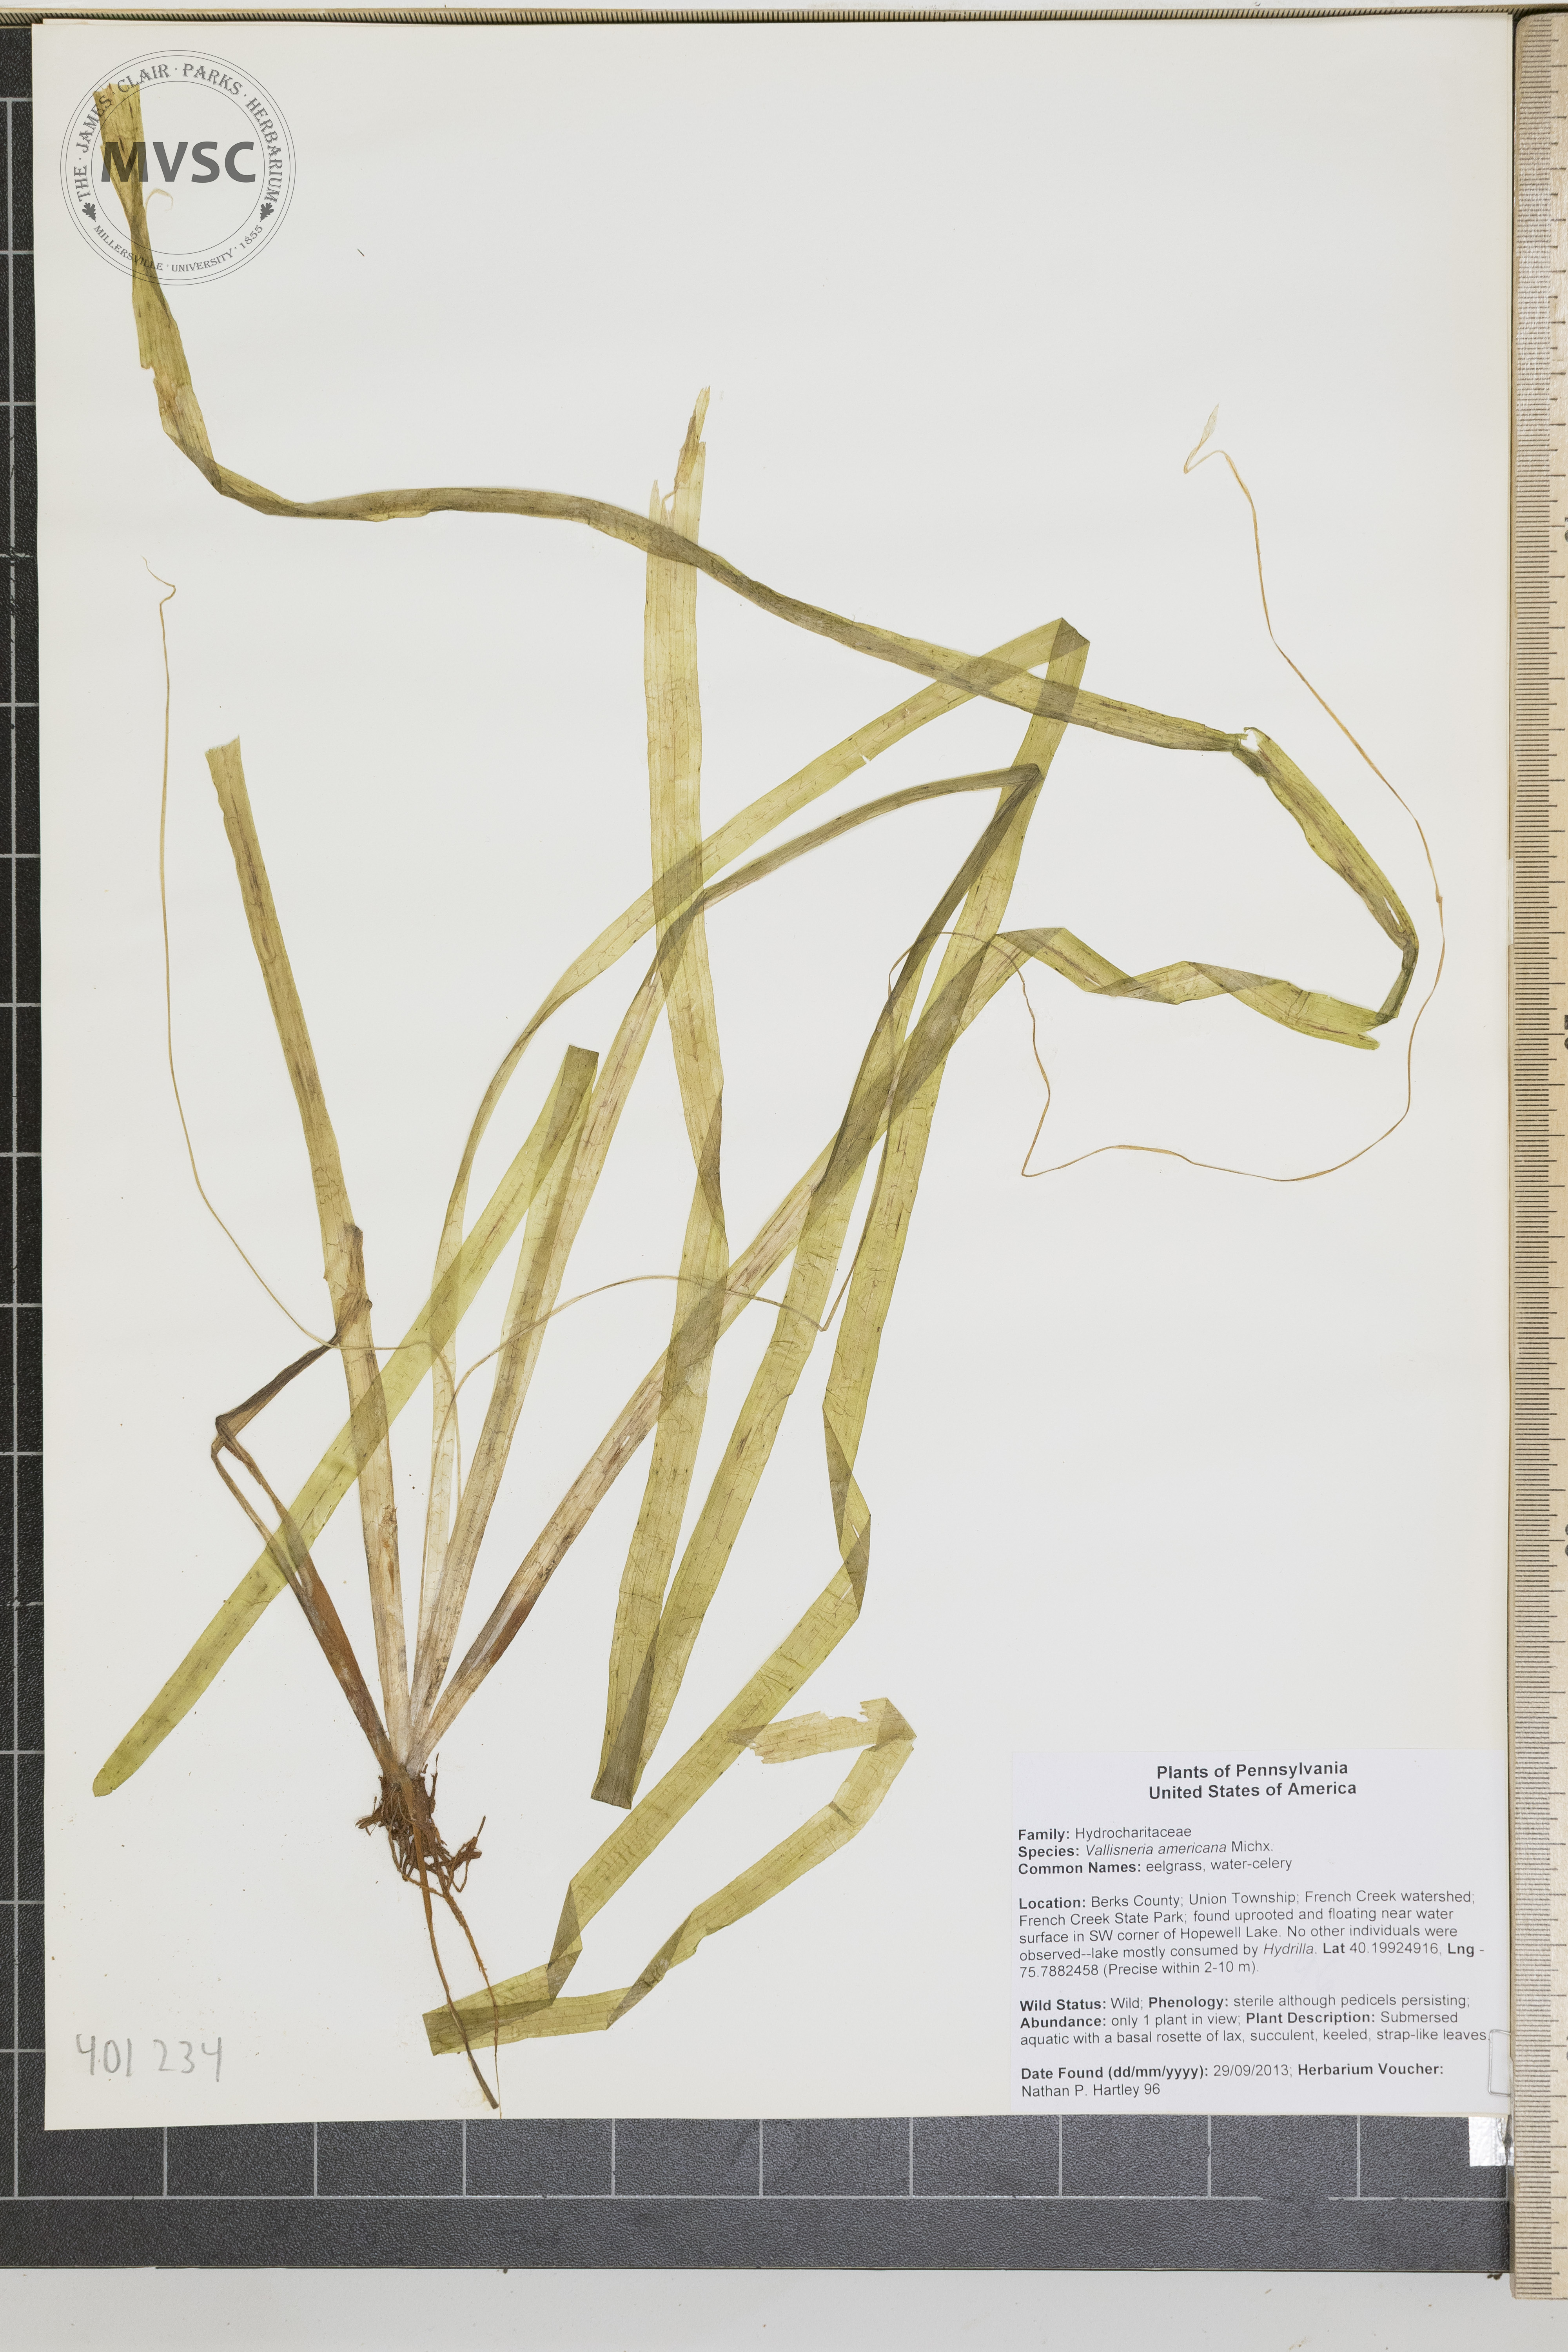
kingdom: Plantae
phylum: Tracheophyta
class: Liliopsida
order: Alismatales
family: Hydrocharitaceae
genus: Vallisneria
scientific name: Vallisneria americana
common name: Water celery
